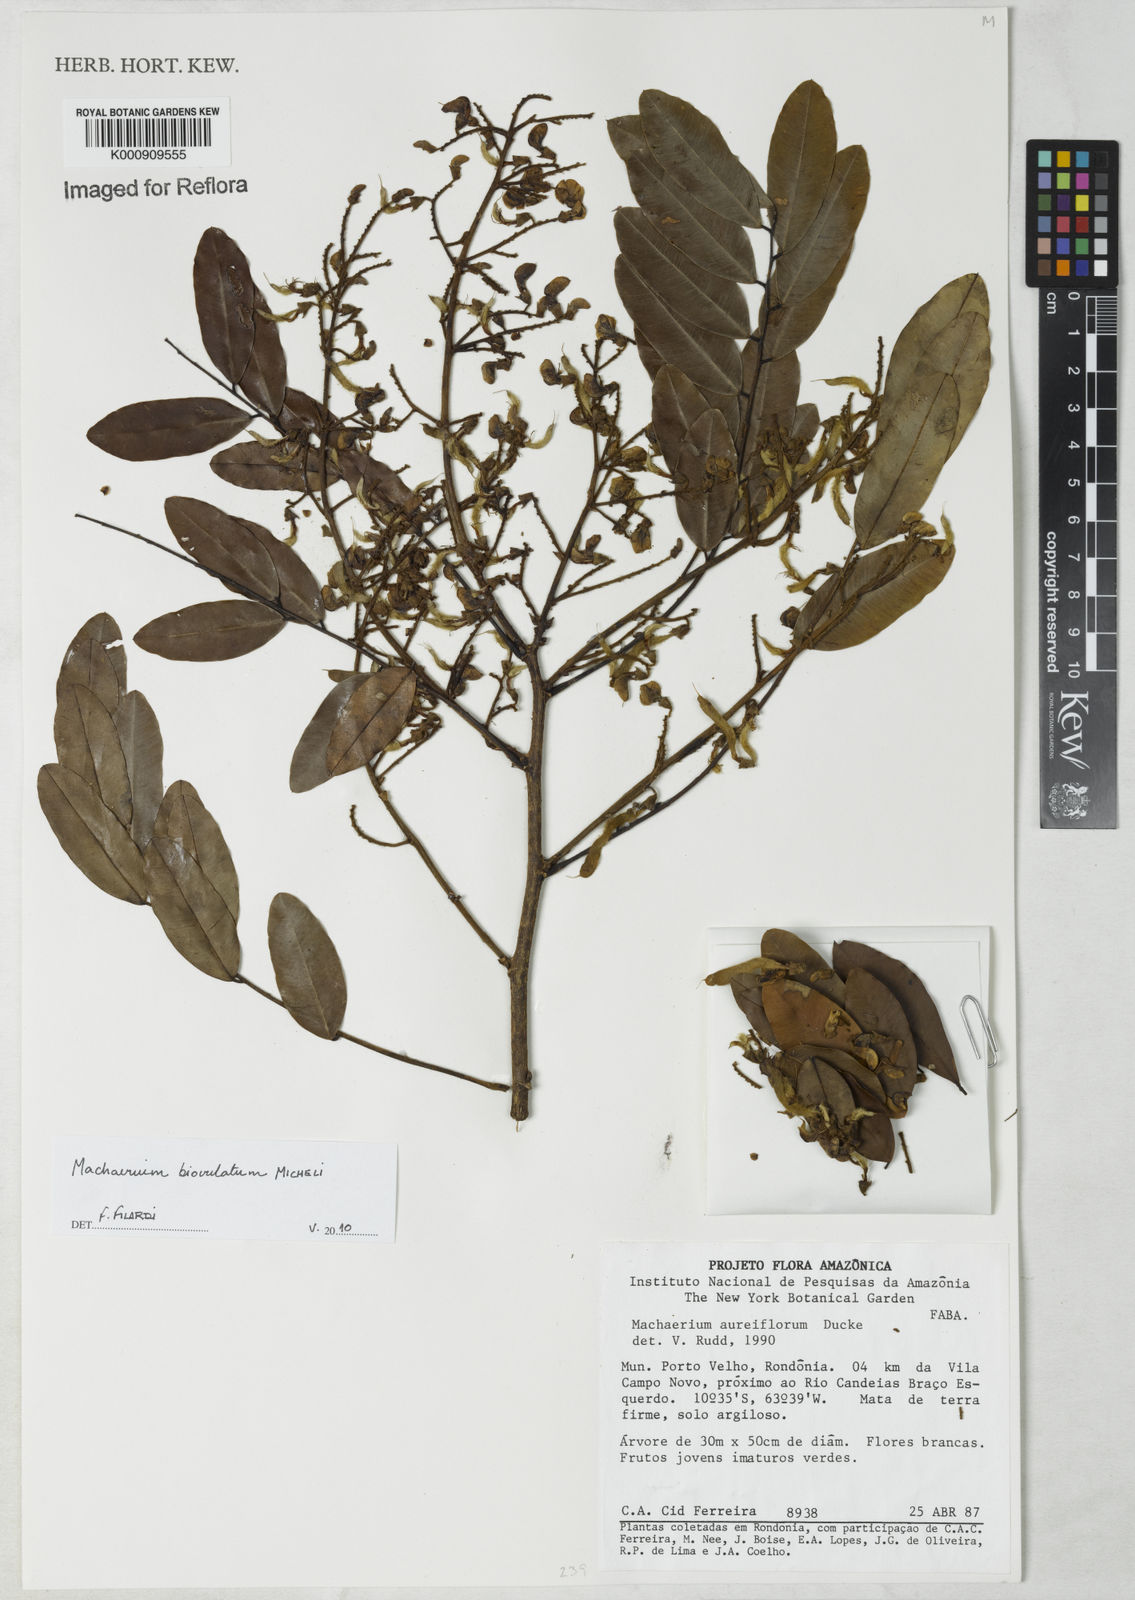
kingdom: Plantae
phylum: Tracheophyta
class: Magnoliopsida
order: Fabales
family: Fabaceae
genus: Machaerium
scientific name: Machaerium biovulatum
